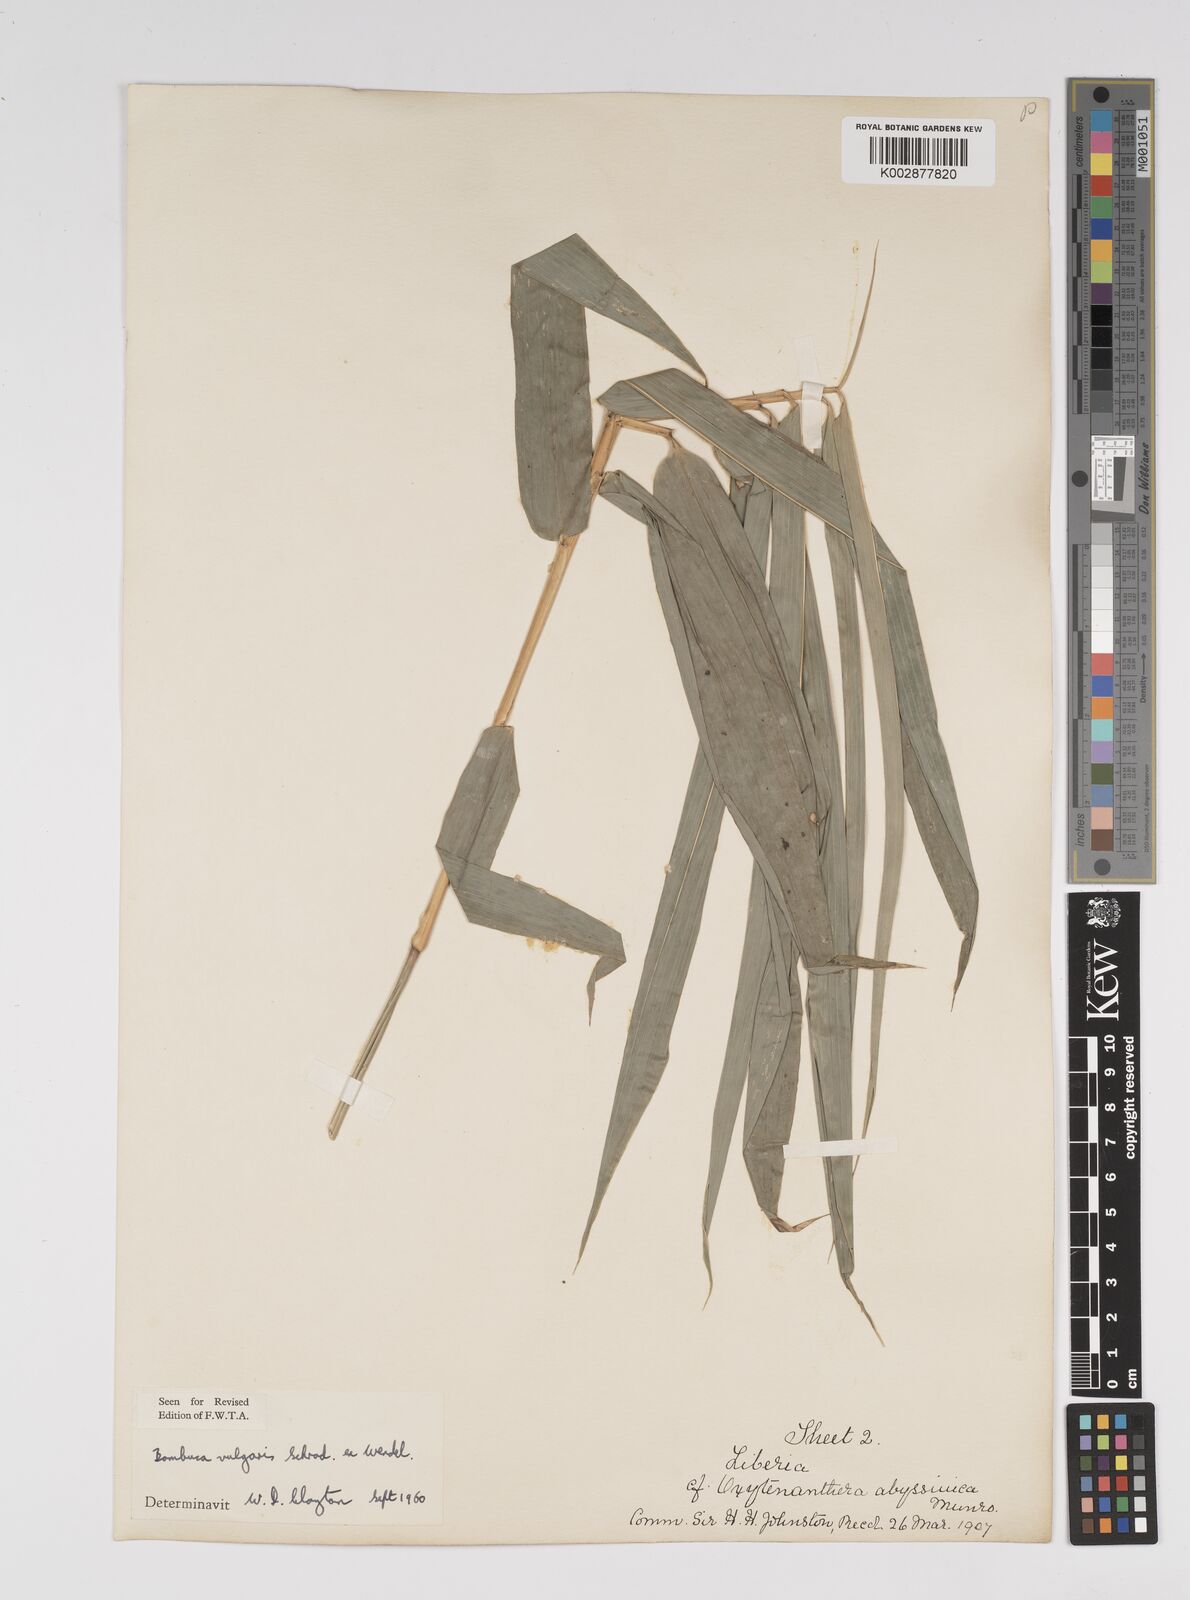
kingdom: Plantae
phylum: Tracheophyta
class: Liliopsida
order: Poales
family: Poaceae
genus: Bambusa
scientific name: Bambusa vulgaris
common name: Common bamboo
